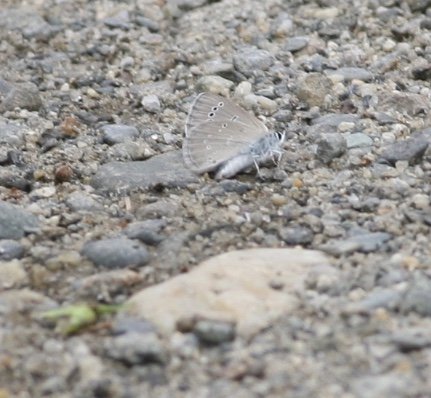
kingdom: Animalia
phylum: Arthropoda
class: Insecta
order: Lepidoptera
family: Lycaenidae
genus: Glaucopsyche
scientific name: Glaucopsyche lygdamus
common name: Silvery Blue
